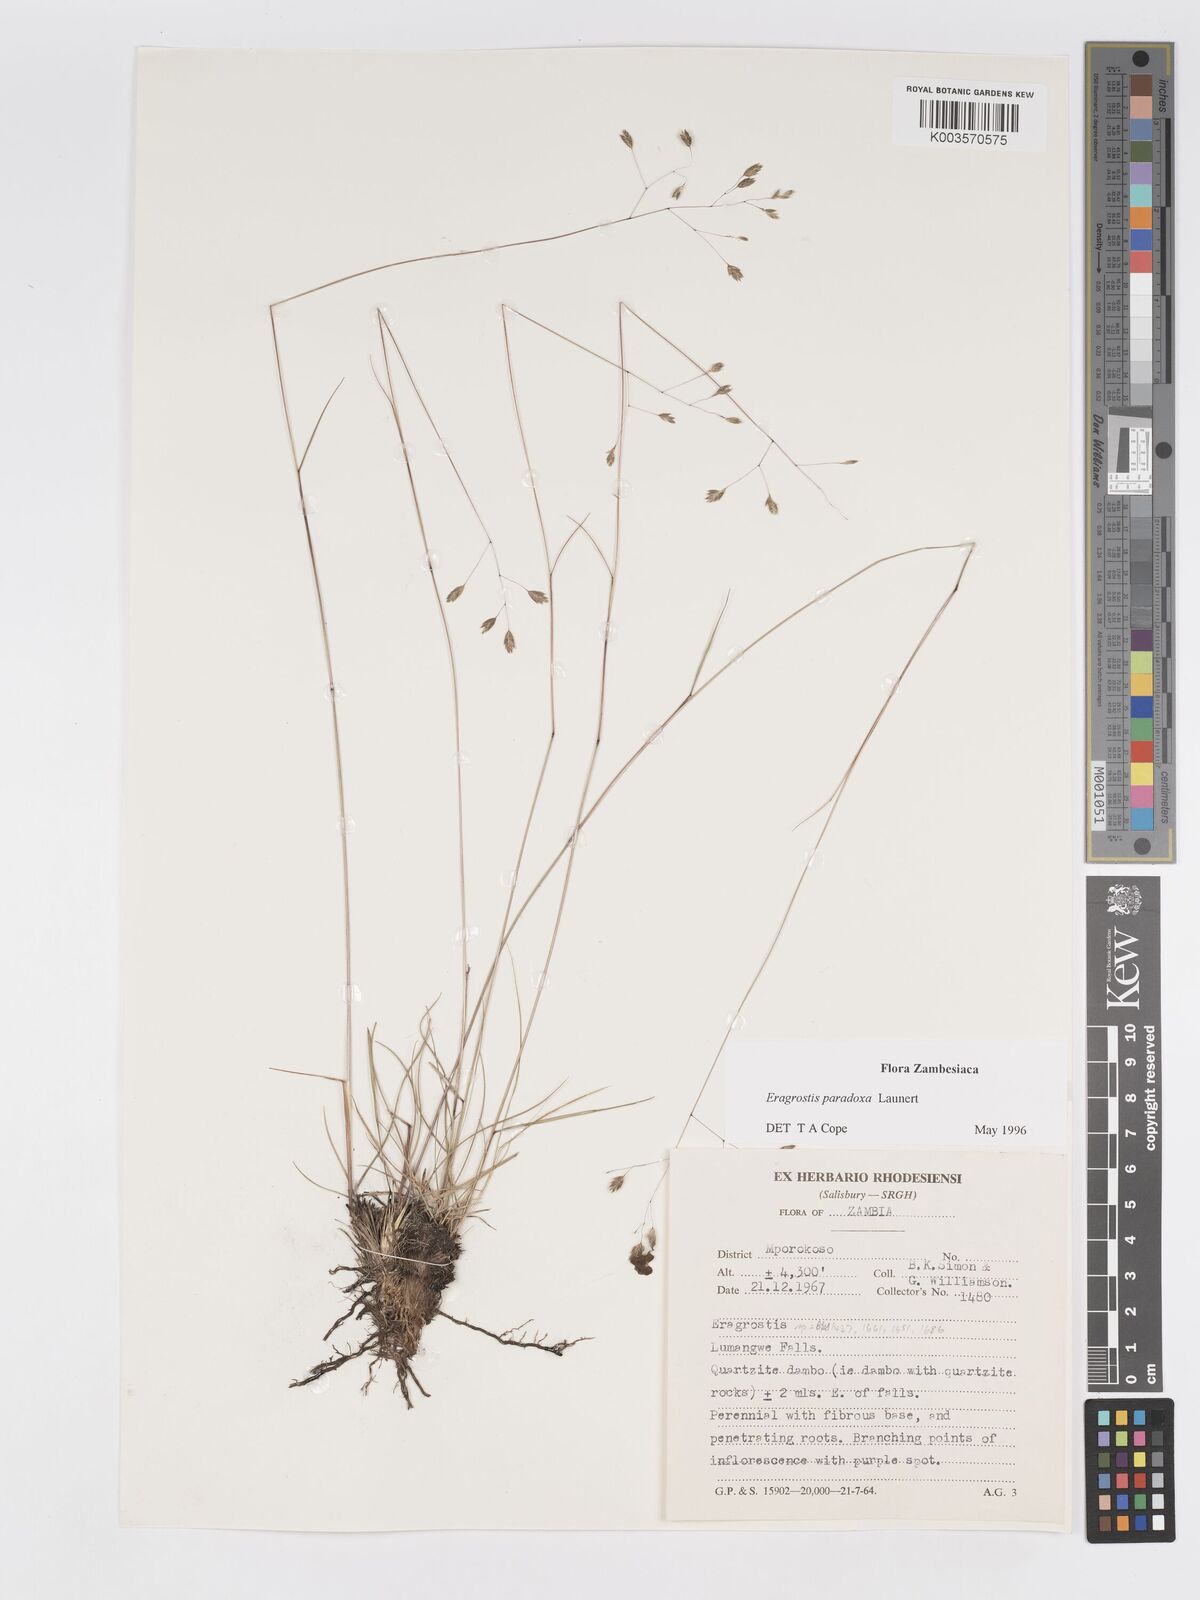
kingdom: Plantae
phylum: Tracheophyta
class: Liliopsida
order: Poales
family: Poaceae
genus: Eragrostis
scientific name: Eragrostis paradoxa
